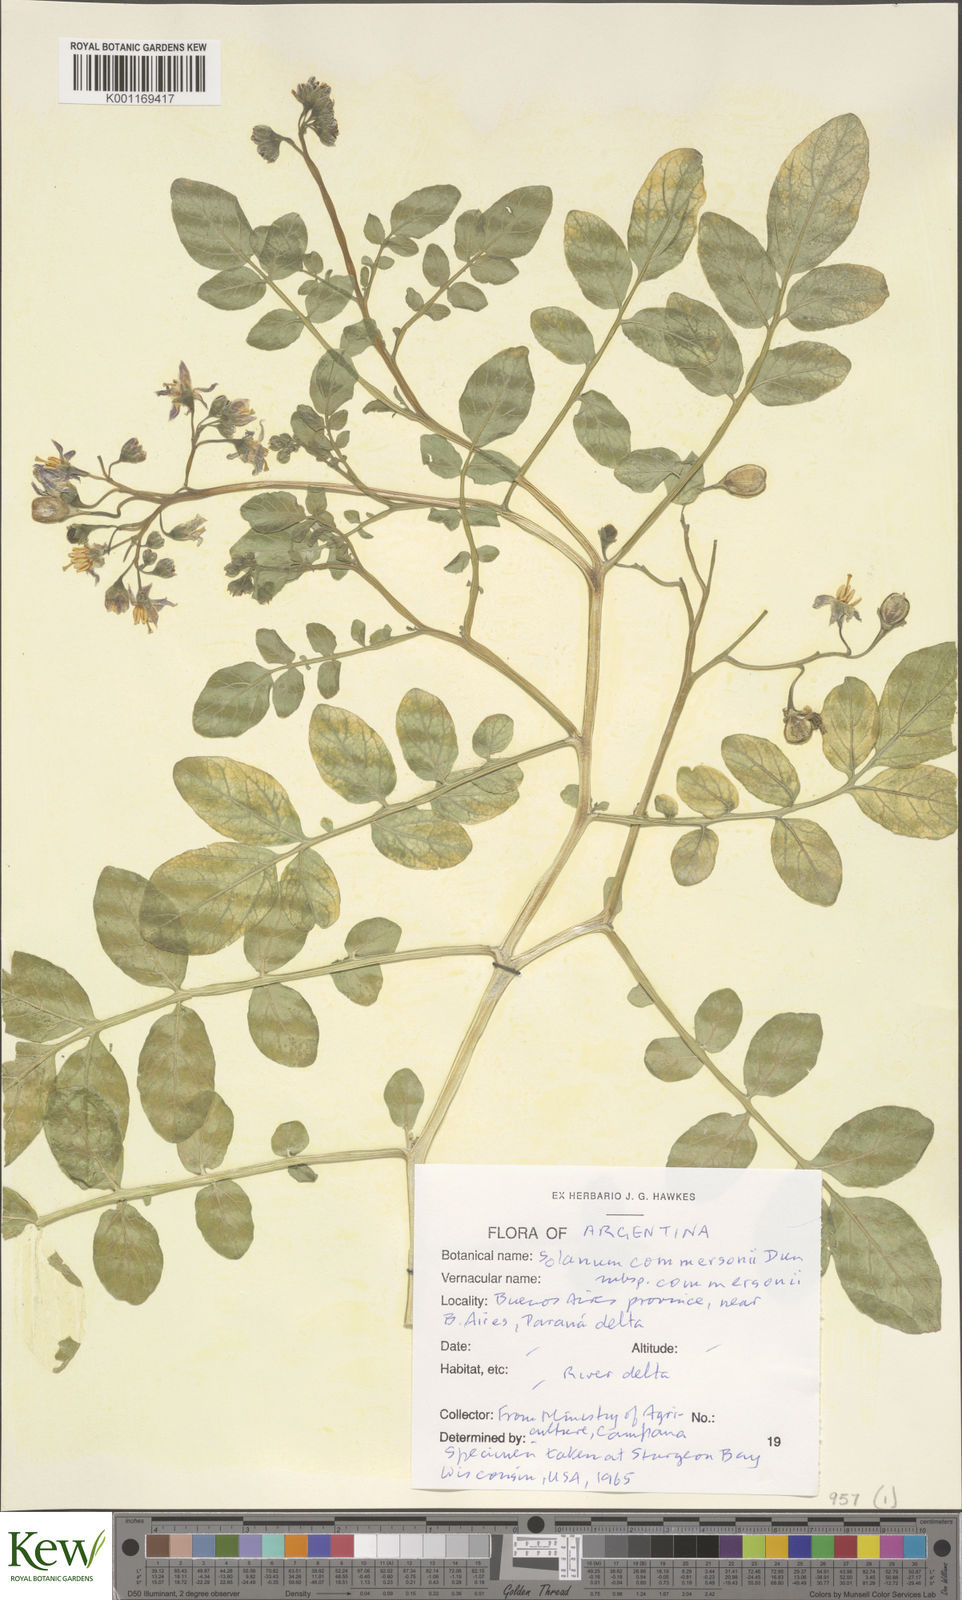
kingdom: Plantae
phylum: Tracheophyta
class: Magnoliopsida
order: Solanales
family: Solanaceae
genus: Solanum
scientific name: Solanum commersonii
